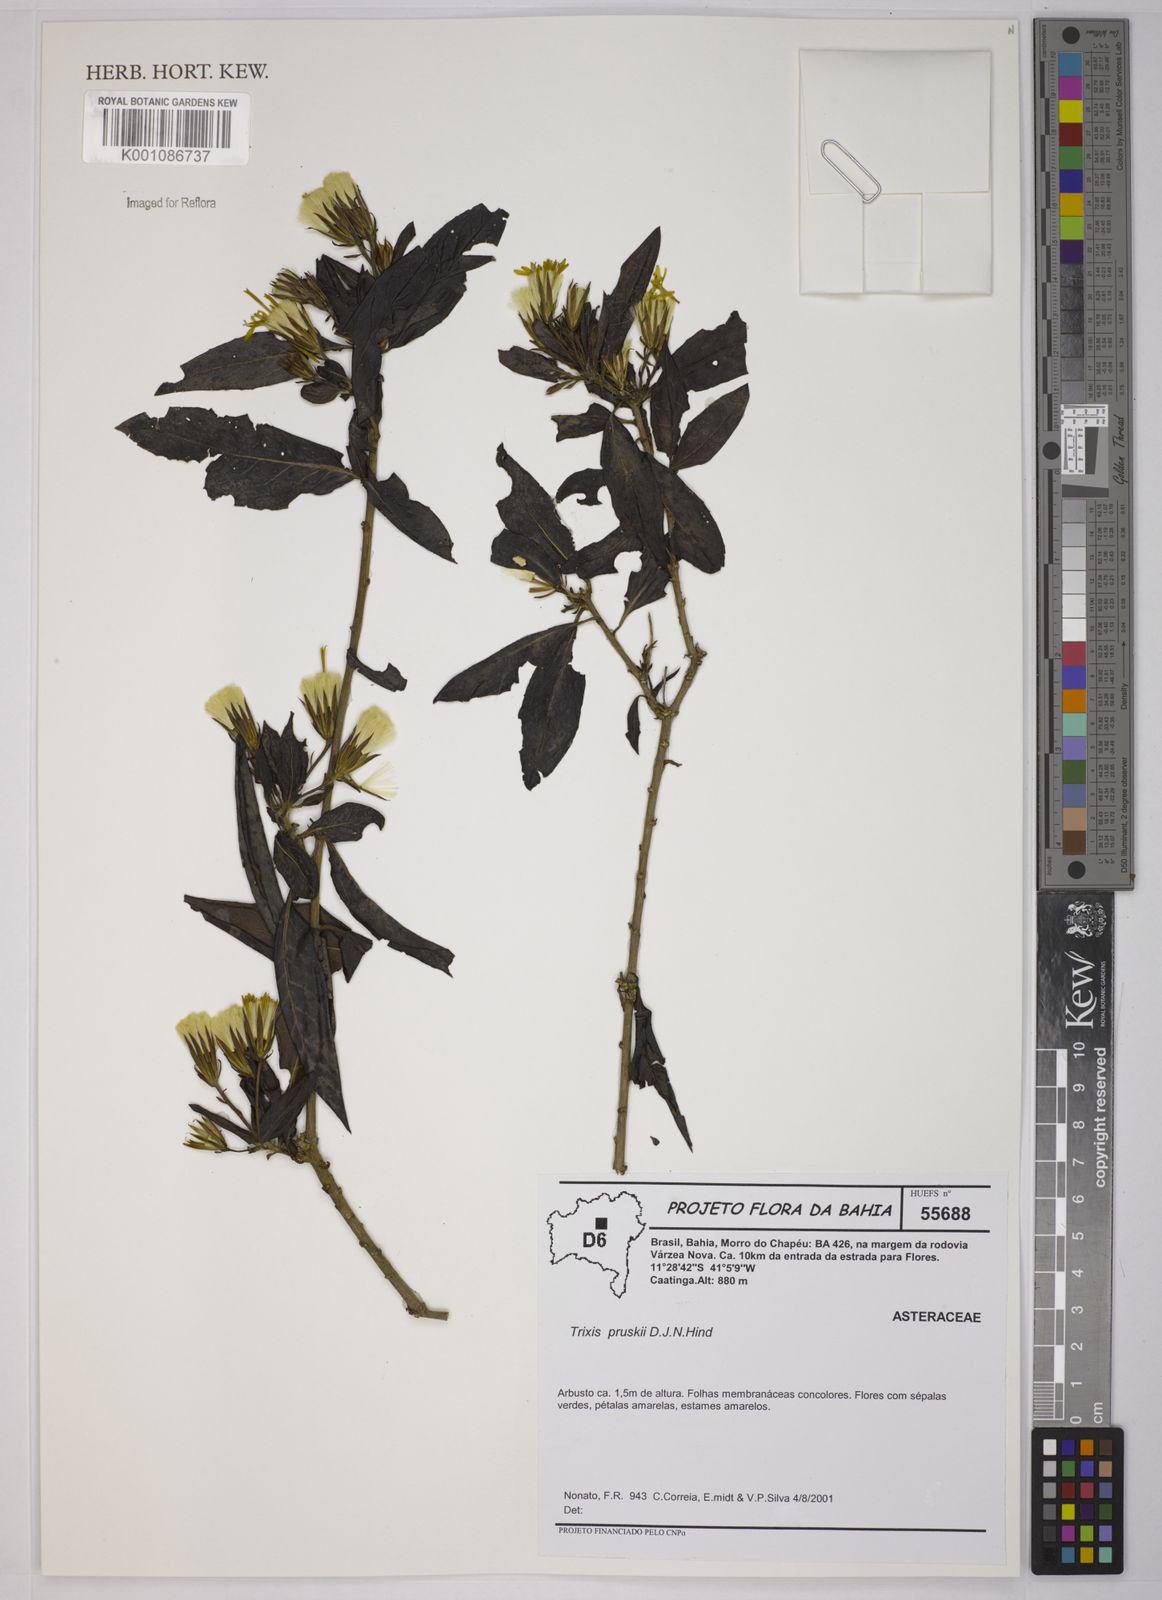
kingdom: Plantae
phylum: Tracheophyta
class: Magnoliopsida
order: Asterales
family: Asteraceae
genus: Trixis
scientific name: Trixis pruskii
